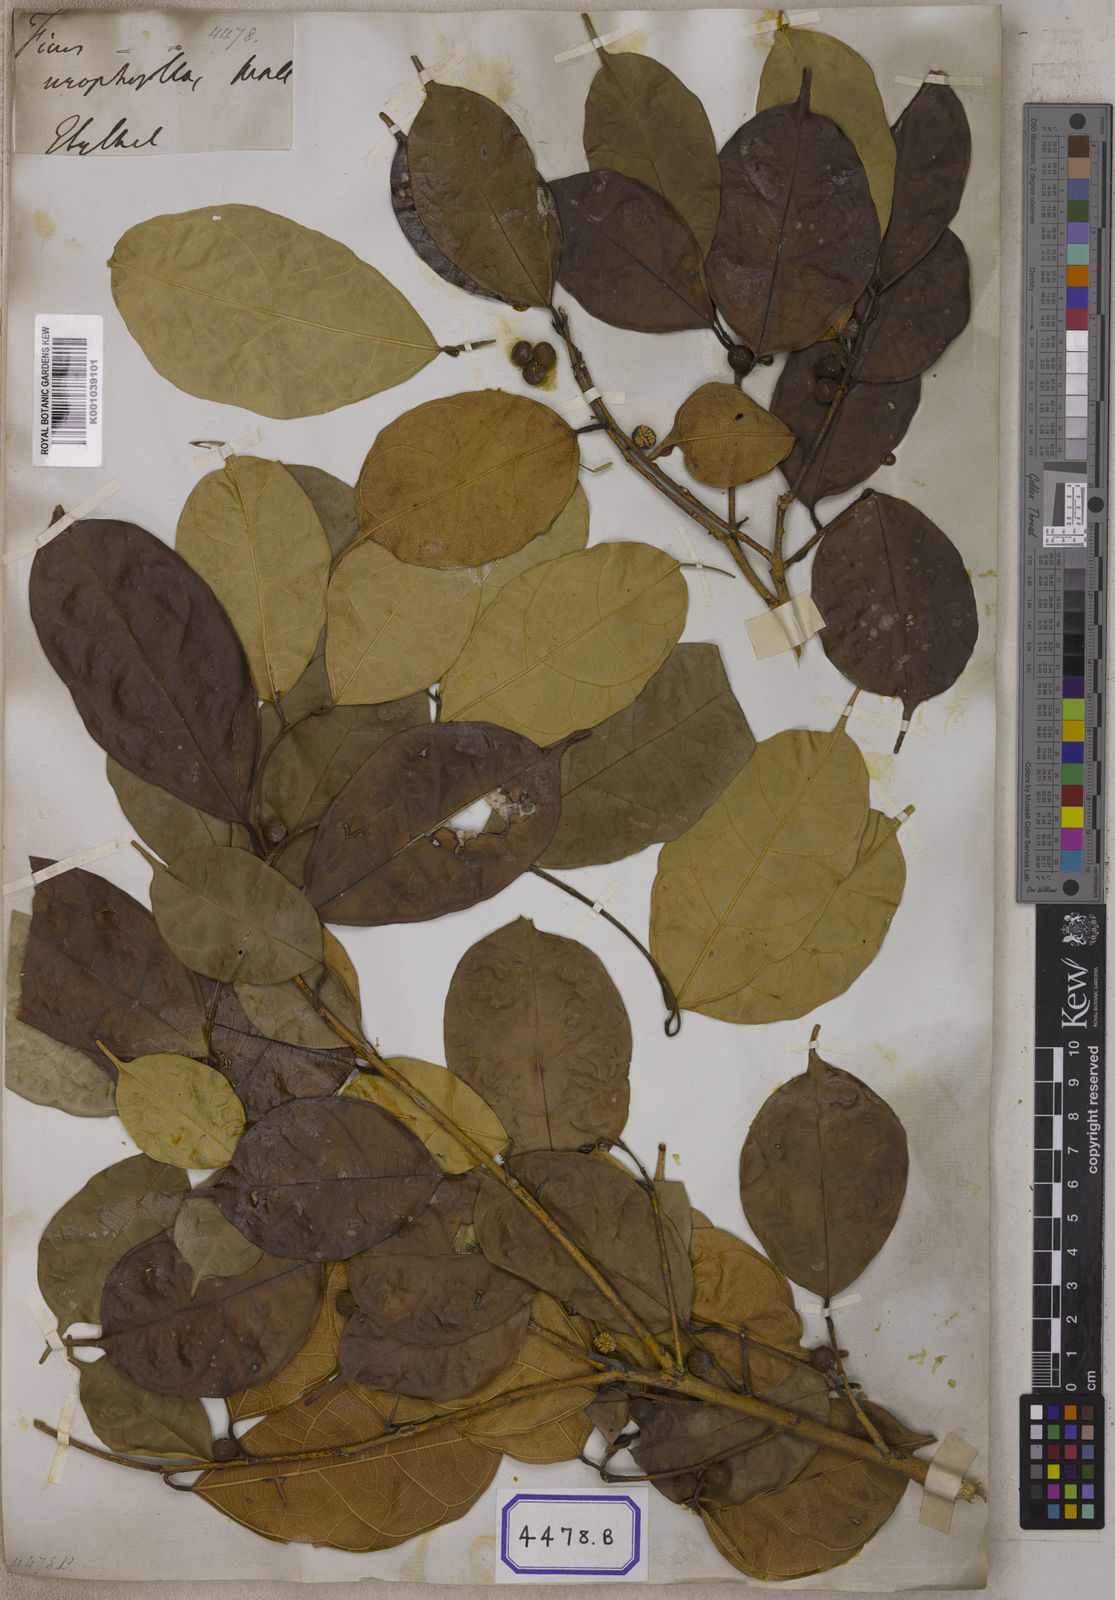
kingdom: Plantae
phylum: Tracheophyta
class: Magnoliopsida
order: Rosales
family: Moraceae
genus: Ficus
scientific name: Ficus
